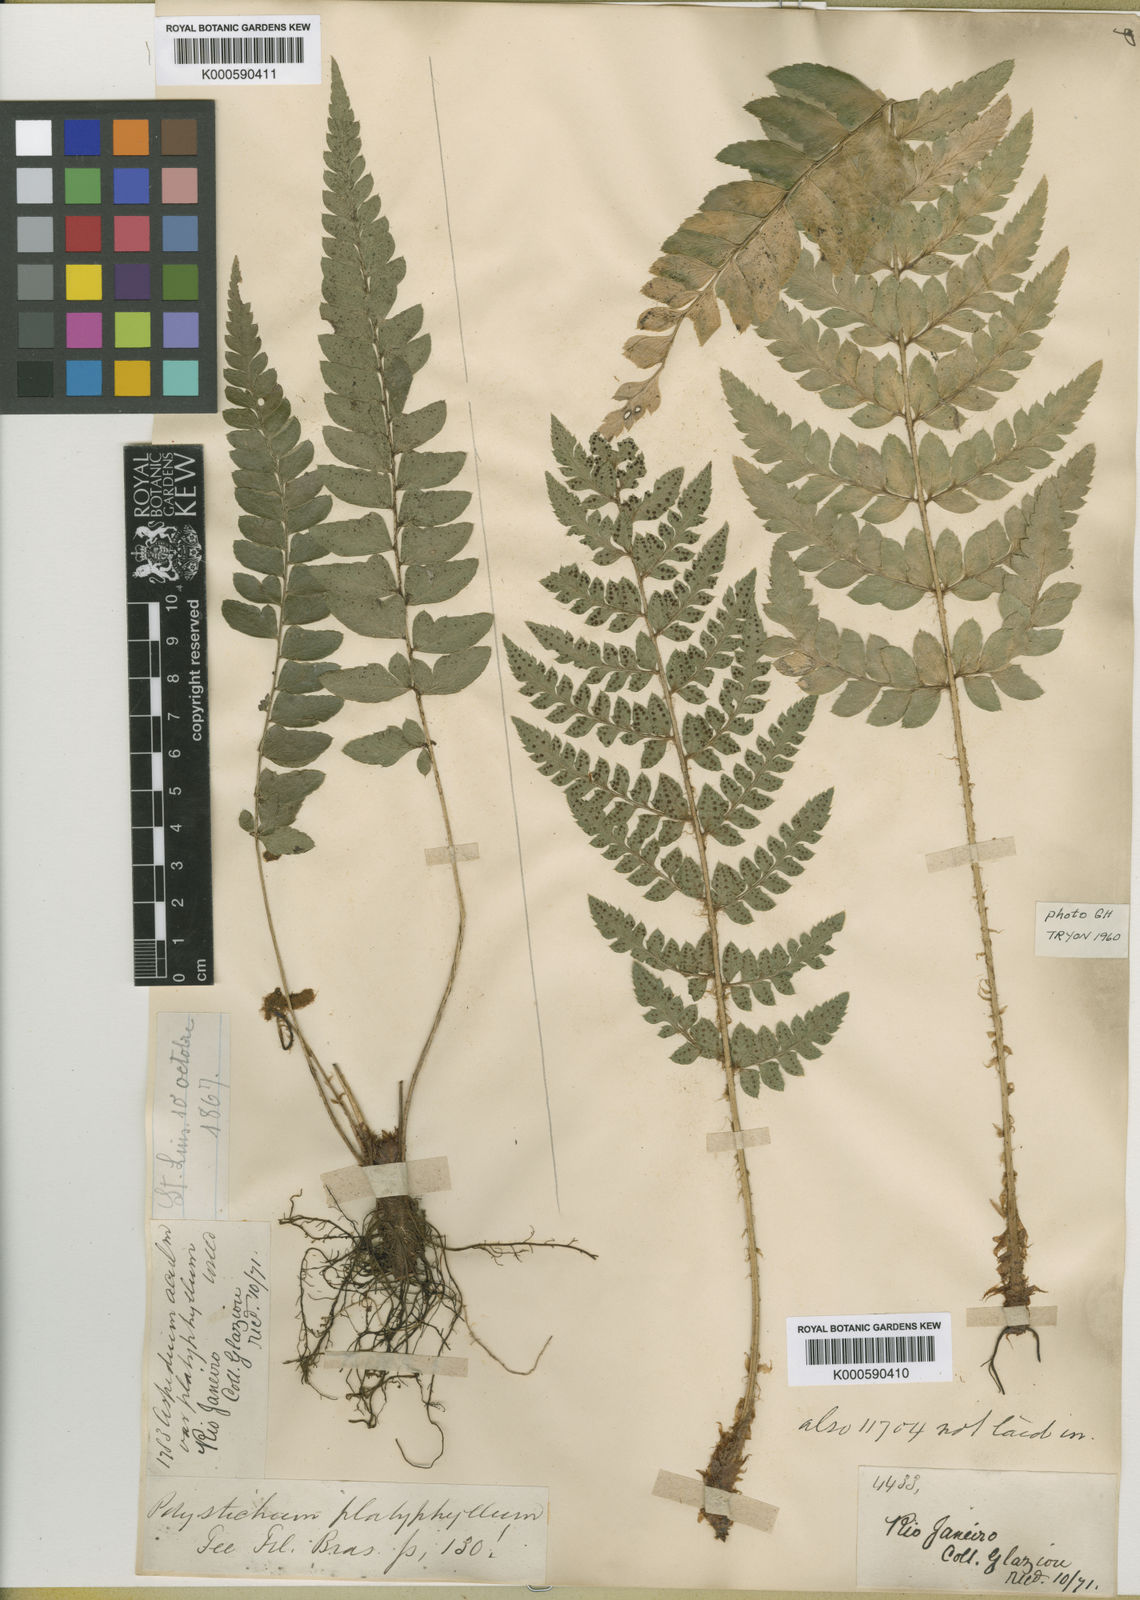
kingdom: Plantae
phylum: Tracheophyta
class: Polypodiopsida
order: Polypodiales
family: Dryopteridaceae
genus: Polystichum
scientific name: Polystichum
